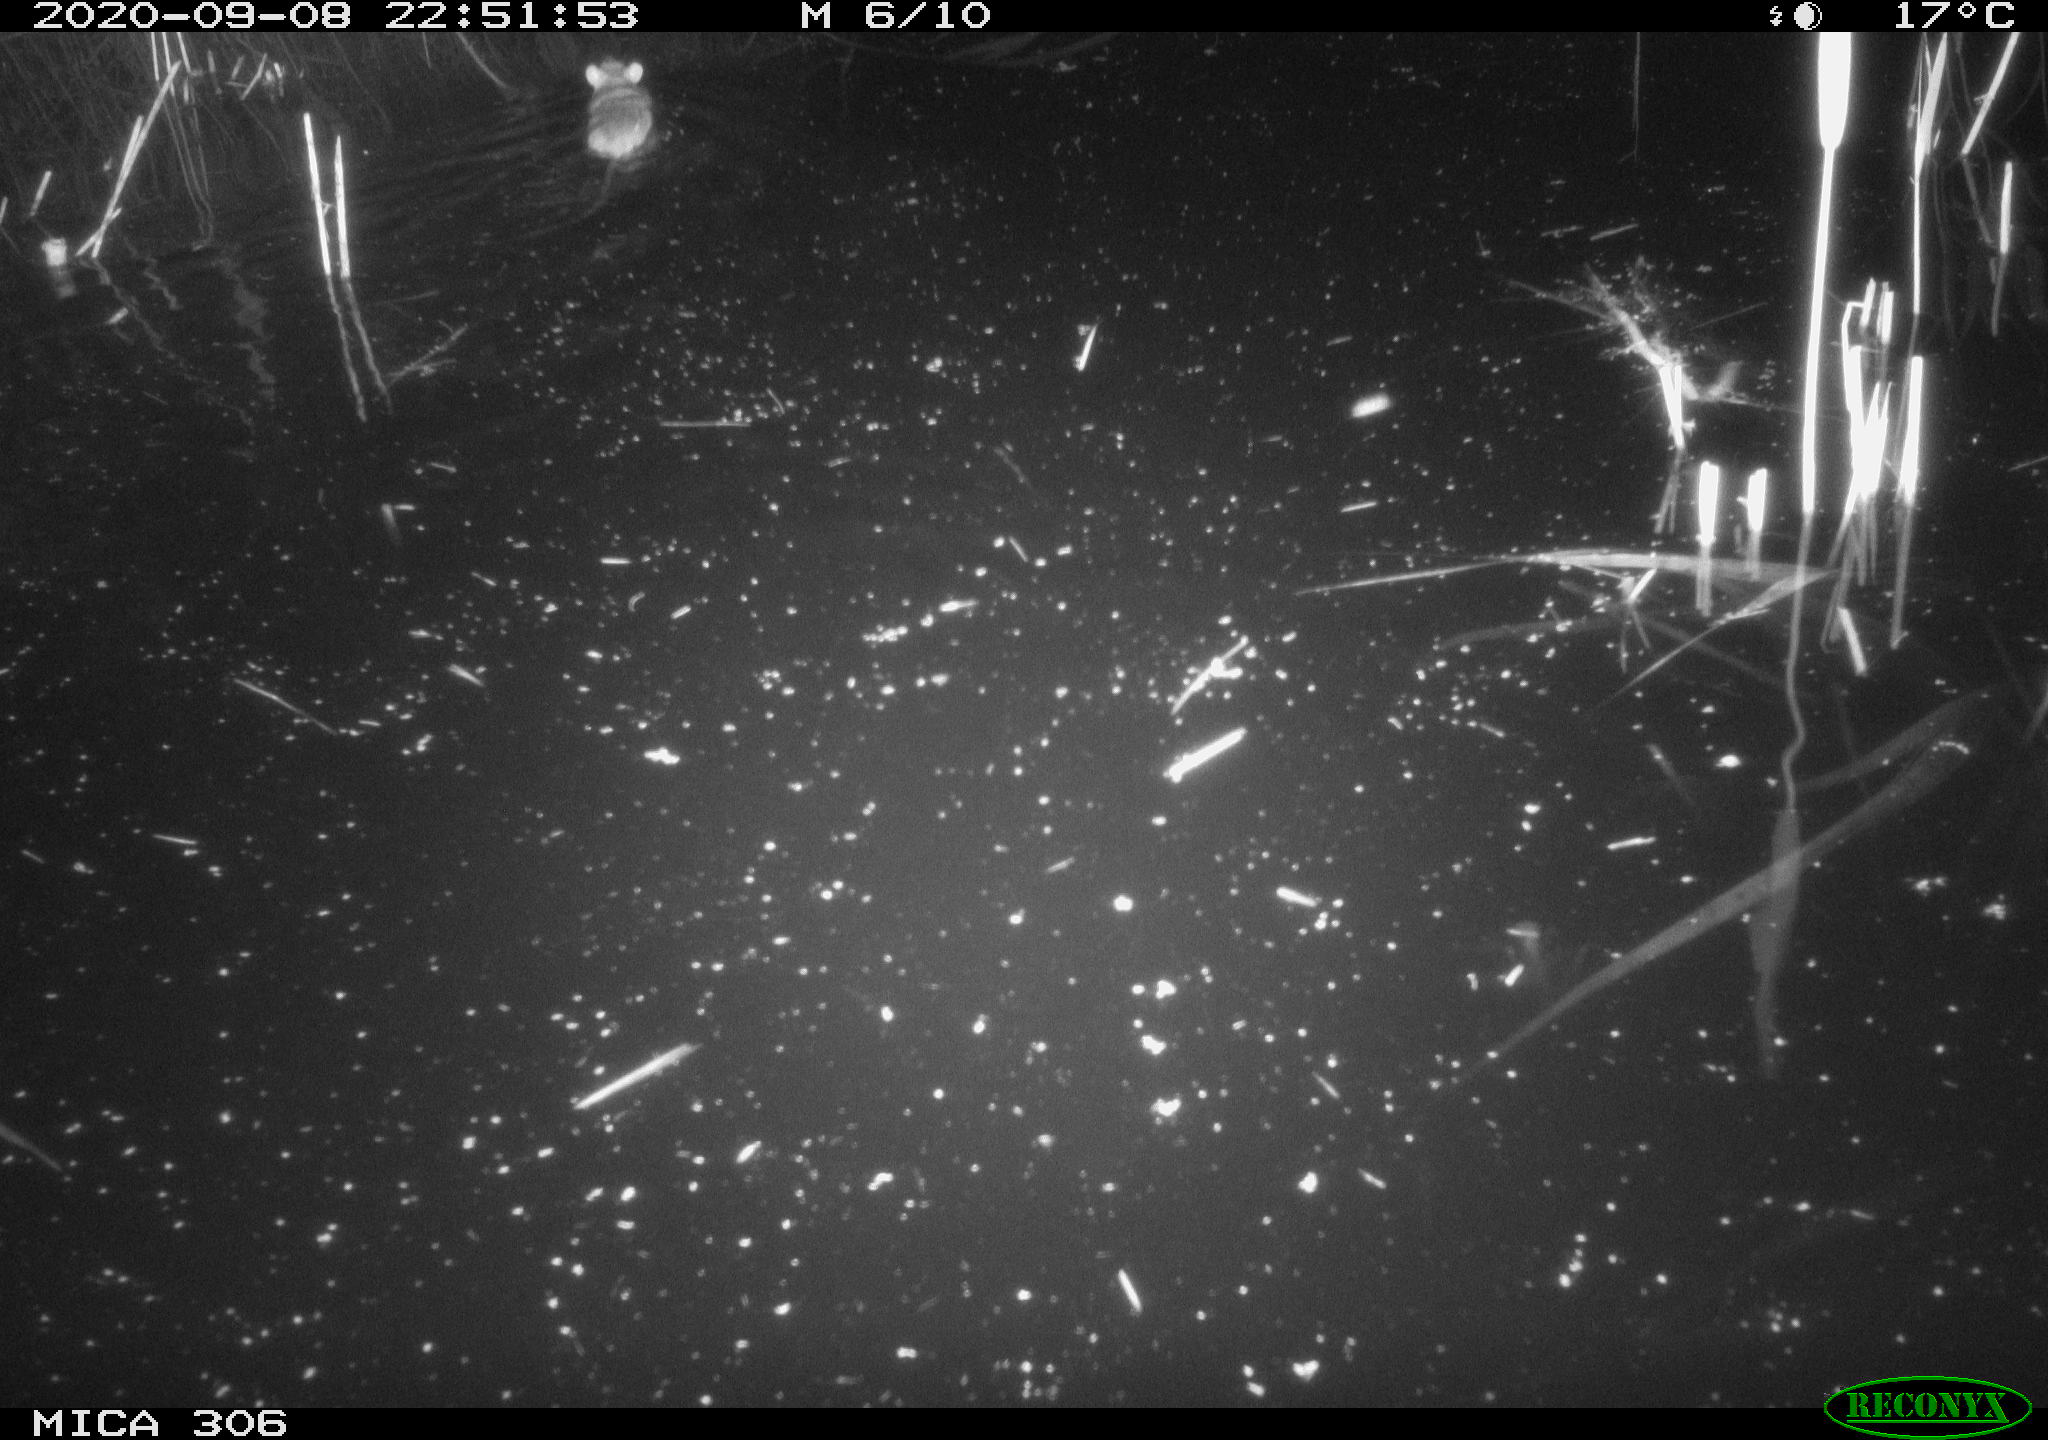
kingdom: Animalia
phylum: Chordata
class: Mammalia
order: Rodentia
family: Muridae
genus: Rattus
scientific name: Rattus norvegicus
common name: Brown rat
